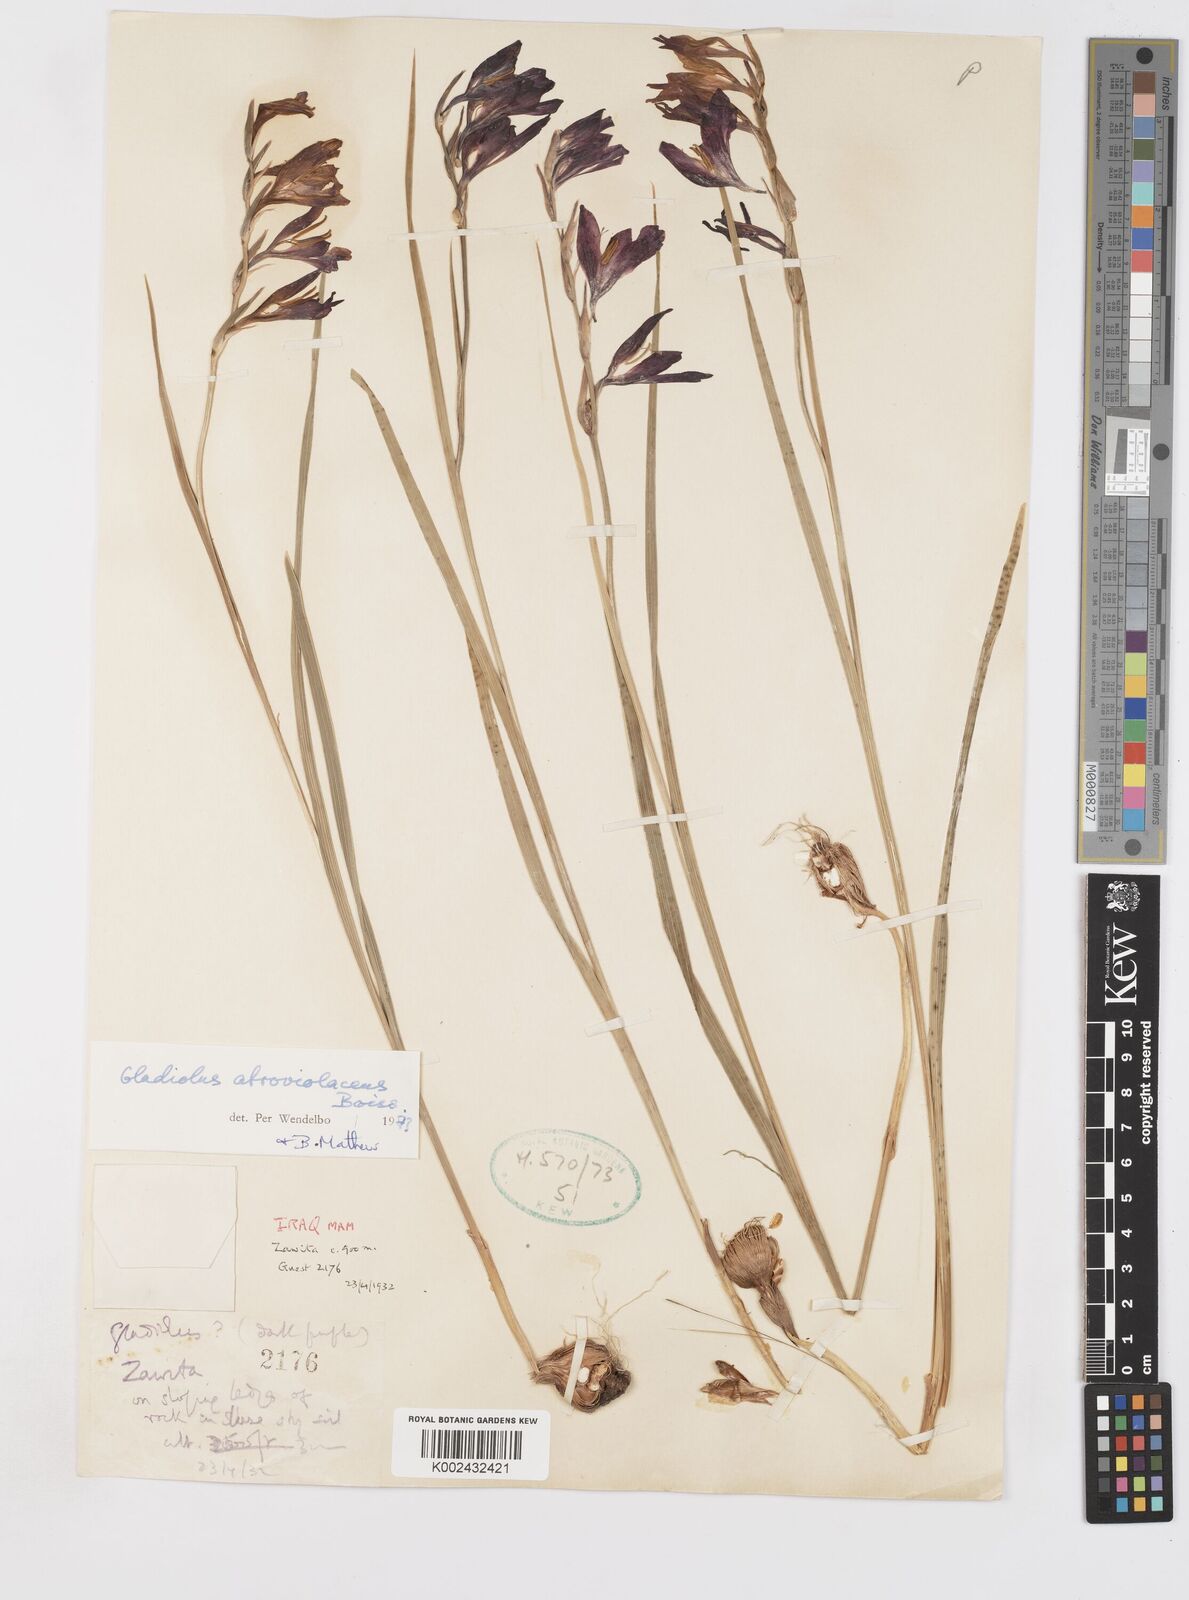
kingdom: Plantae
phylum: Tracheophyta
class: Liliopsida
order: Asparagales
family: Iridaceae
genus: Gladiolus
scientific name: Gladiolus atroviolaceus
